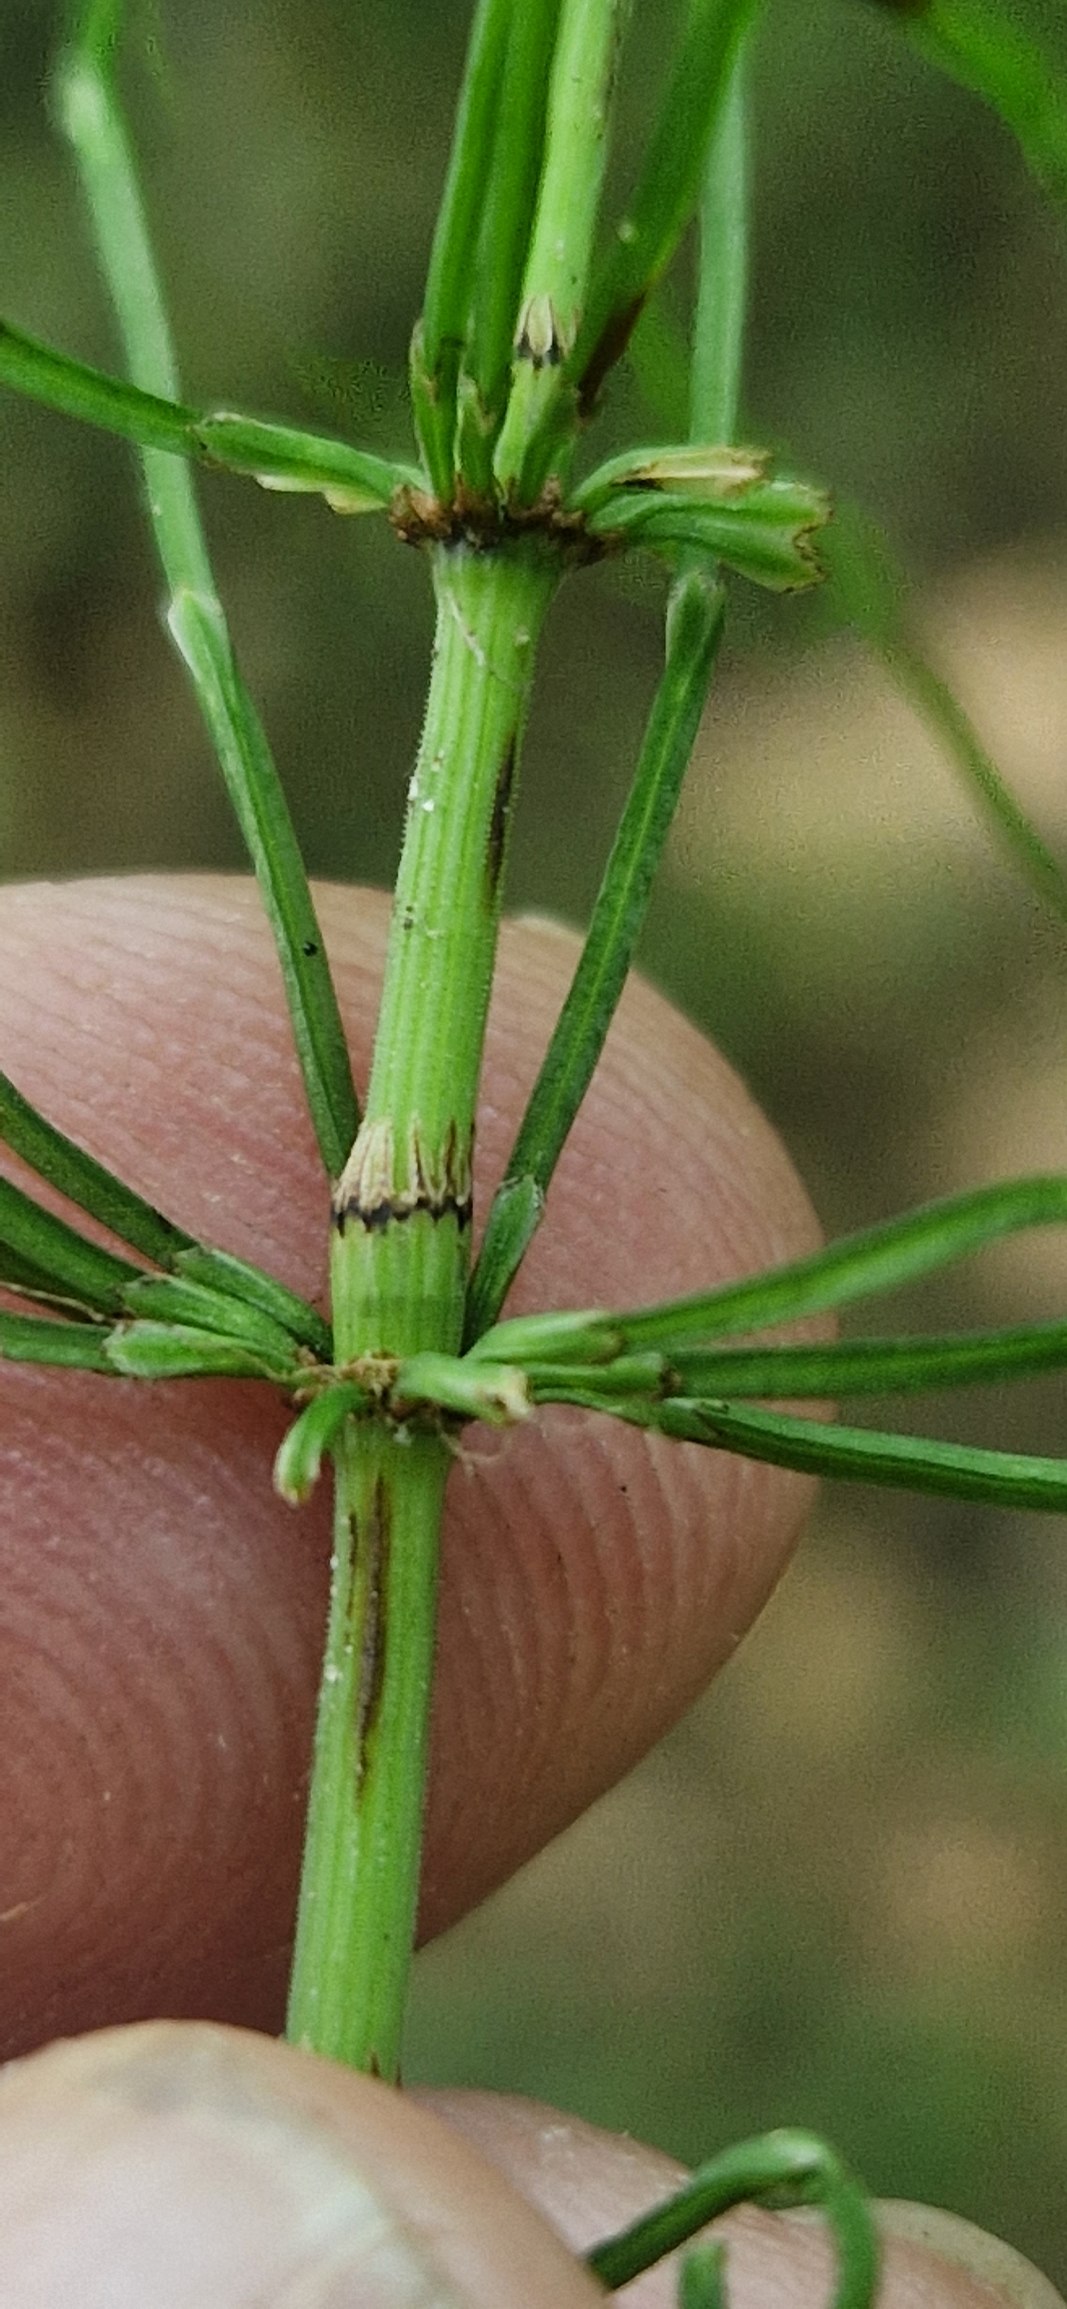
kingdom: Plantae
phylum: Tracheophyta
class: Polypodiopsida
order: Equisetales
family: Equisetaceae
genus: Equisetum
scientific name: Equisetum pratense
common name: Lund-padderok
